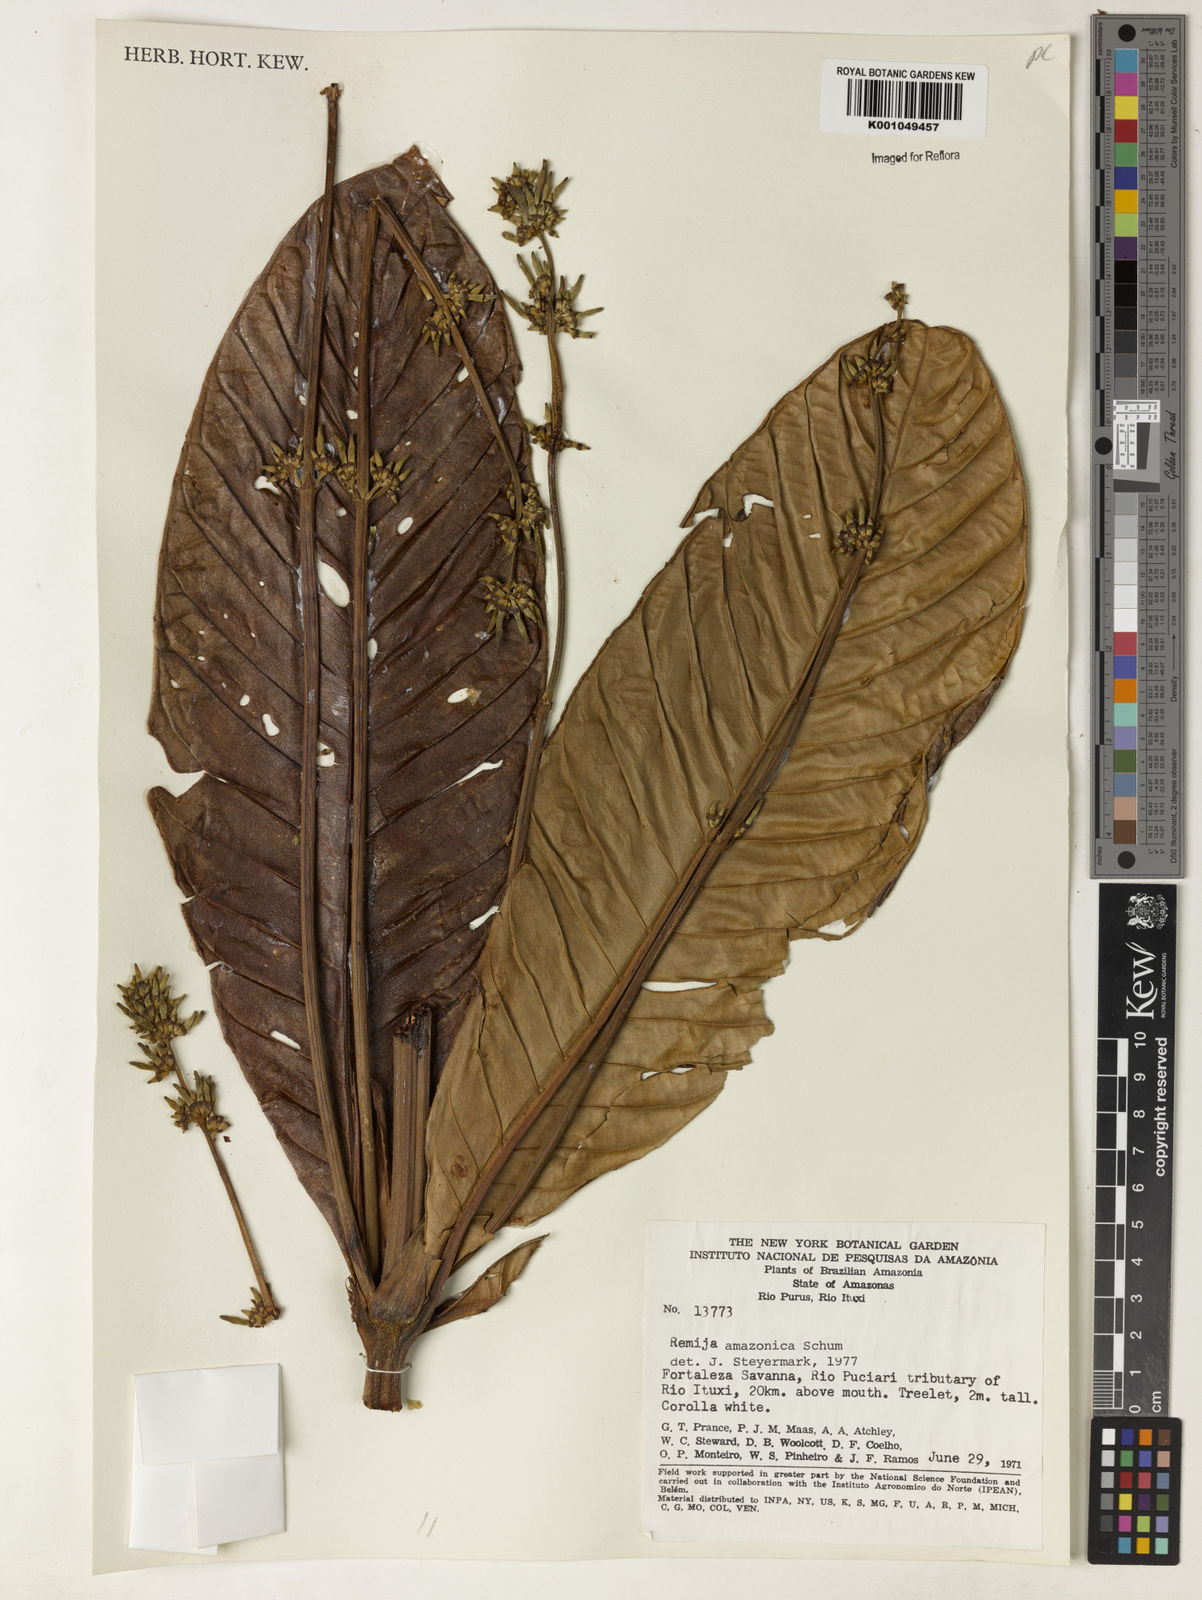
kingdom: Plantae
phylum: Tracheophyta
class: Magnoliopsida
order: Gentianales
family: Rubiaceae
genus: Remijia
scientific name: Remijia amazonica
